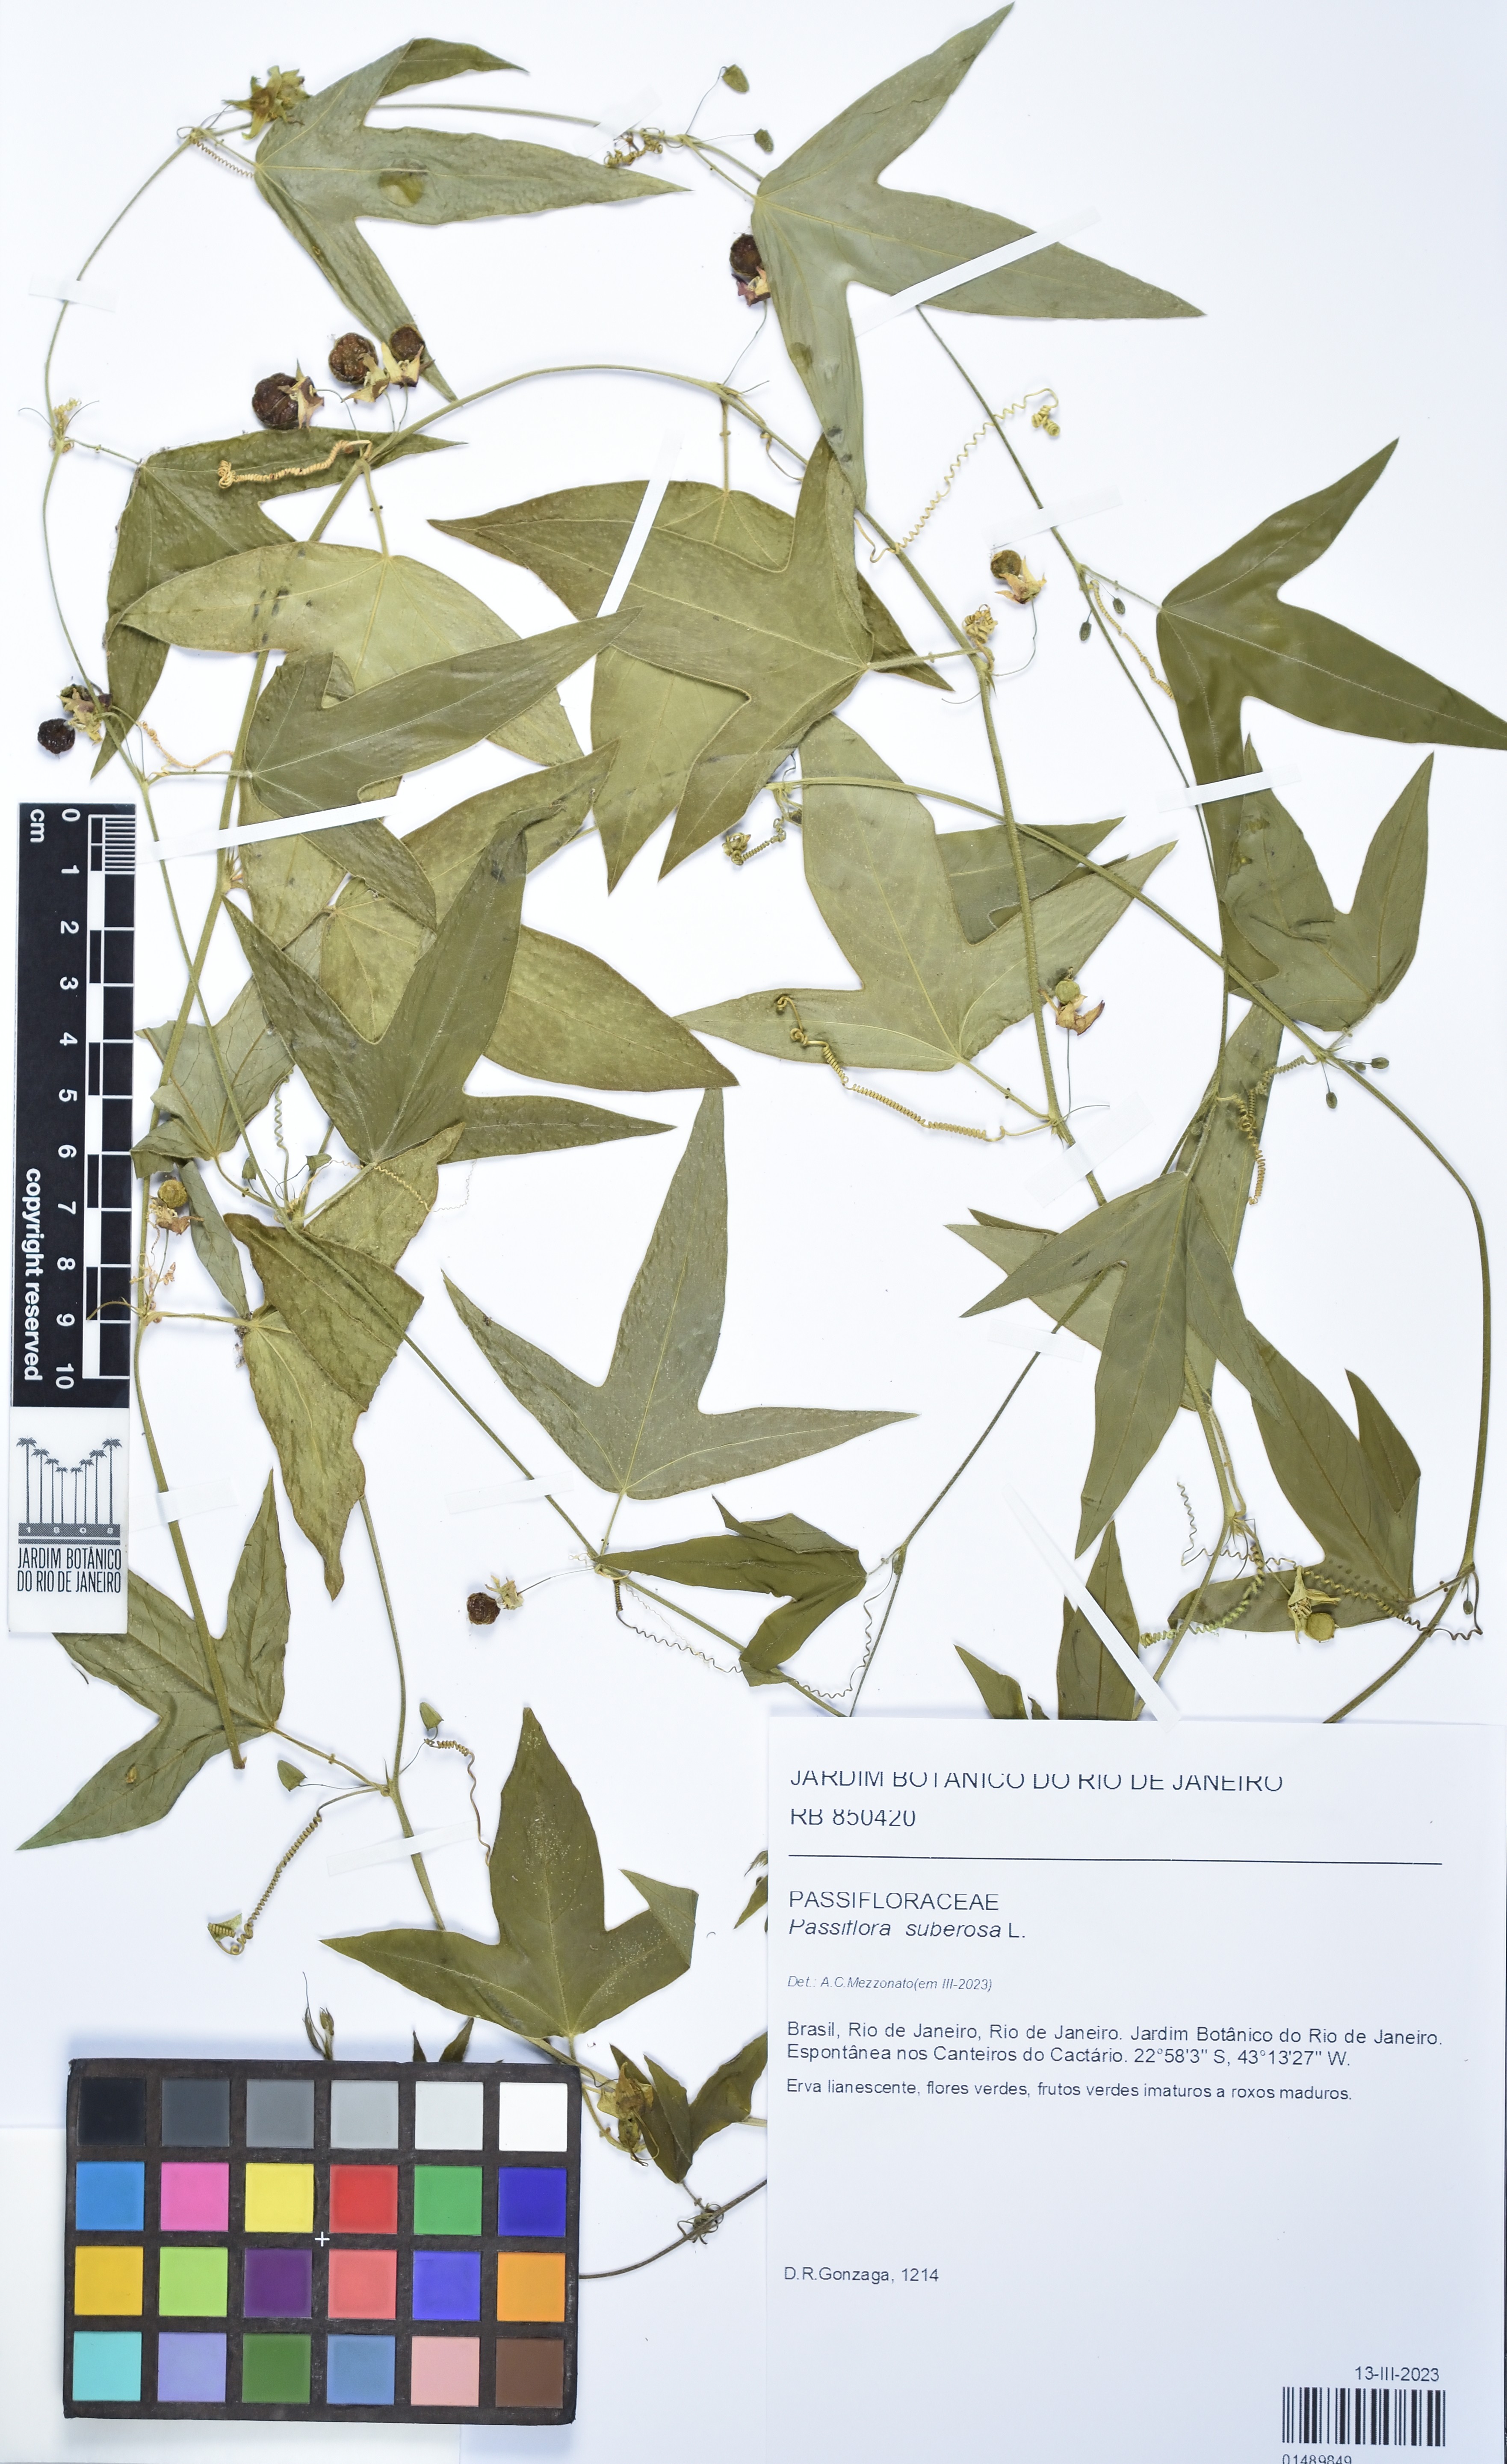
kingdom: Plantae
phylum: Tracheophyta
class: Magnoliopsida
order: Malpighiales
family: Passifloraceae
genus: Passiflora
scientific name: Passiflora suberosa
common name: Wild passionfruit
